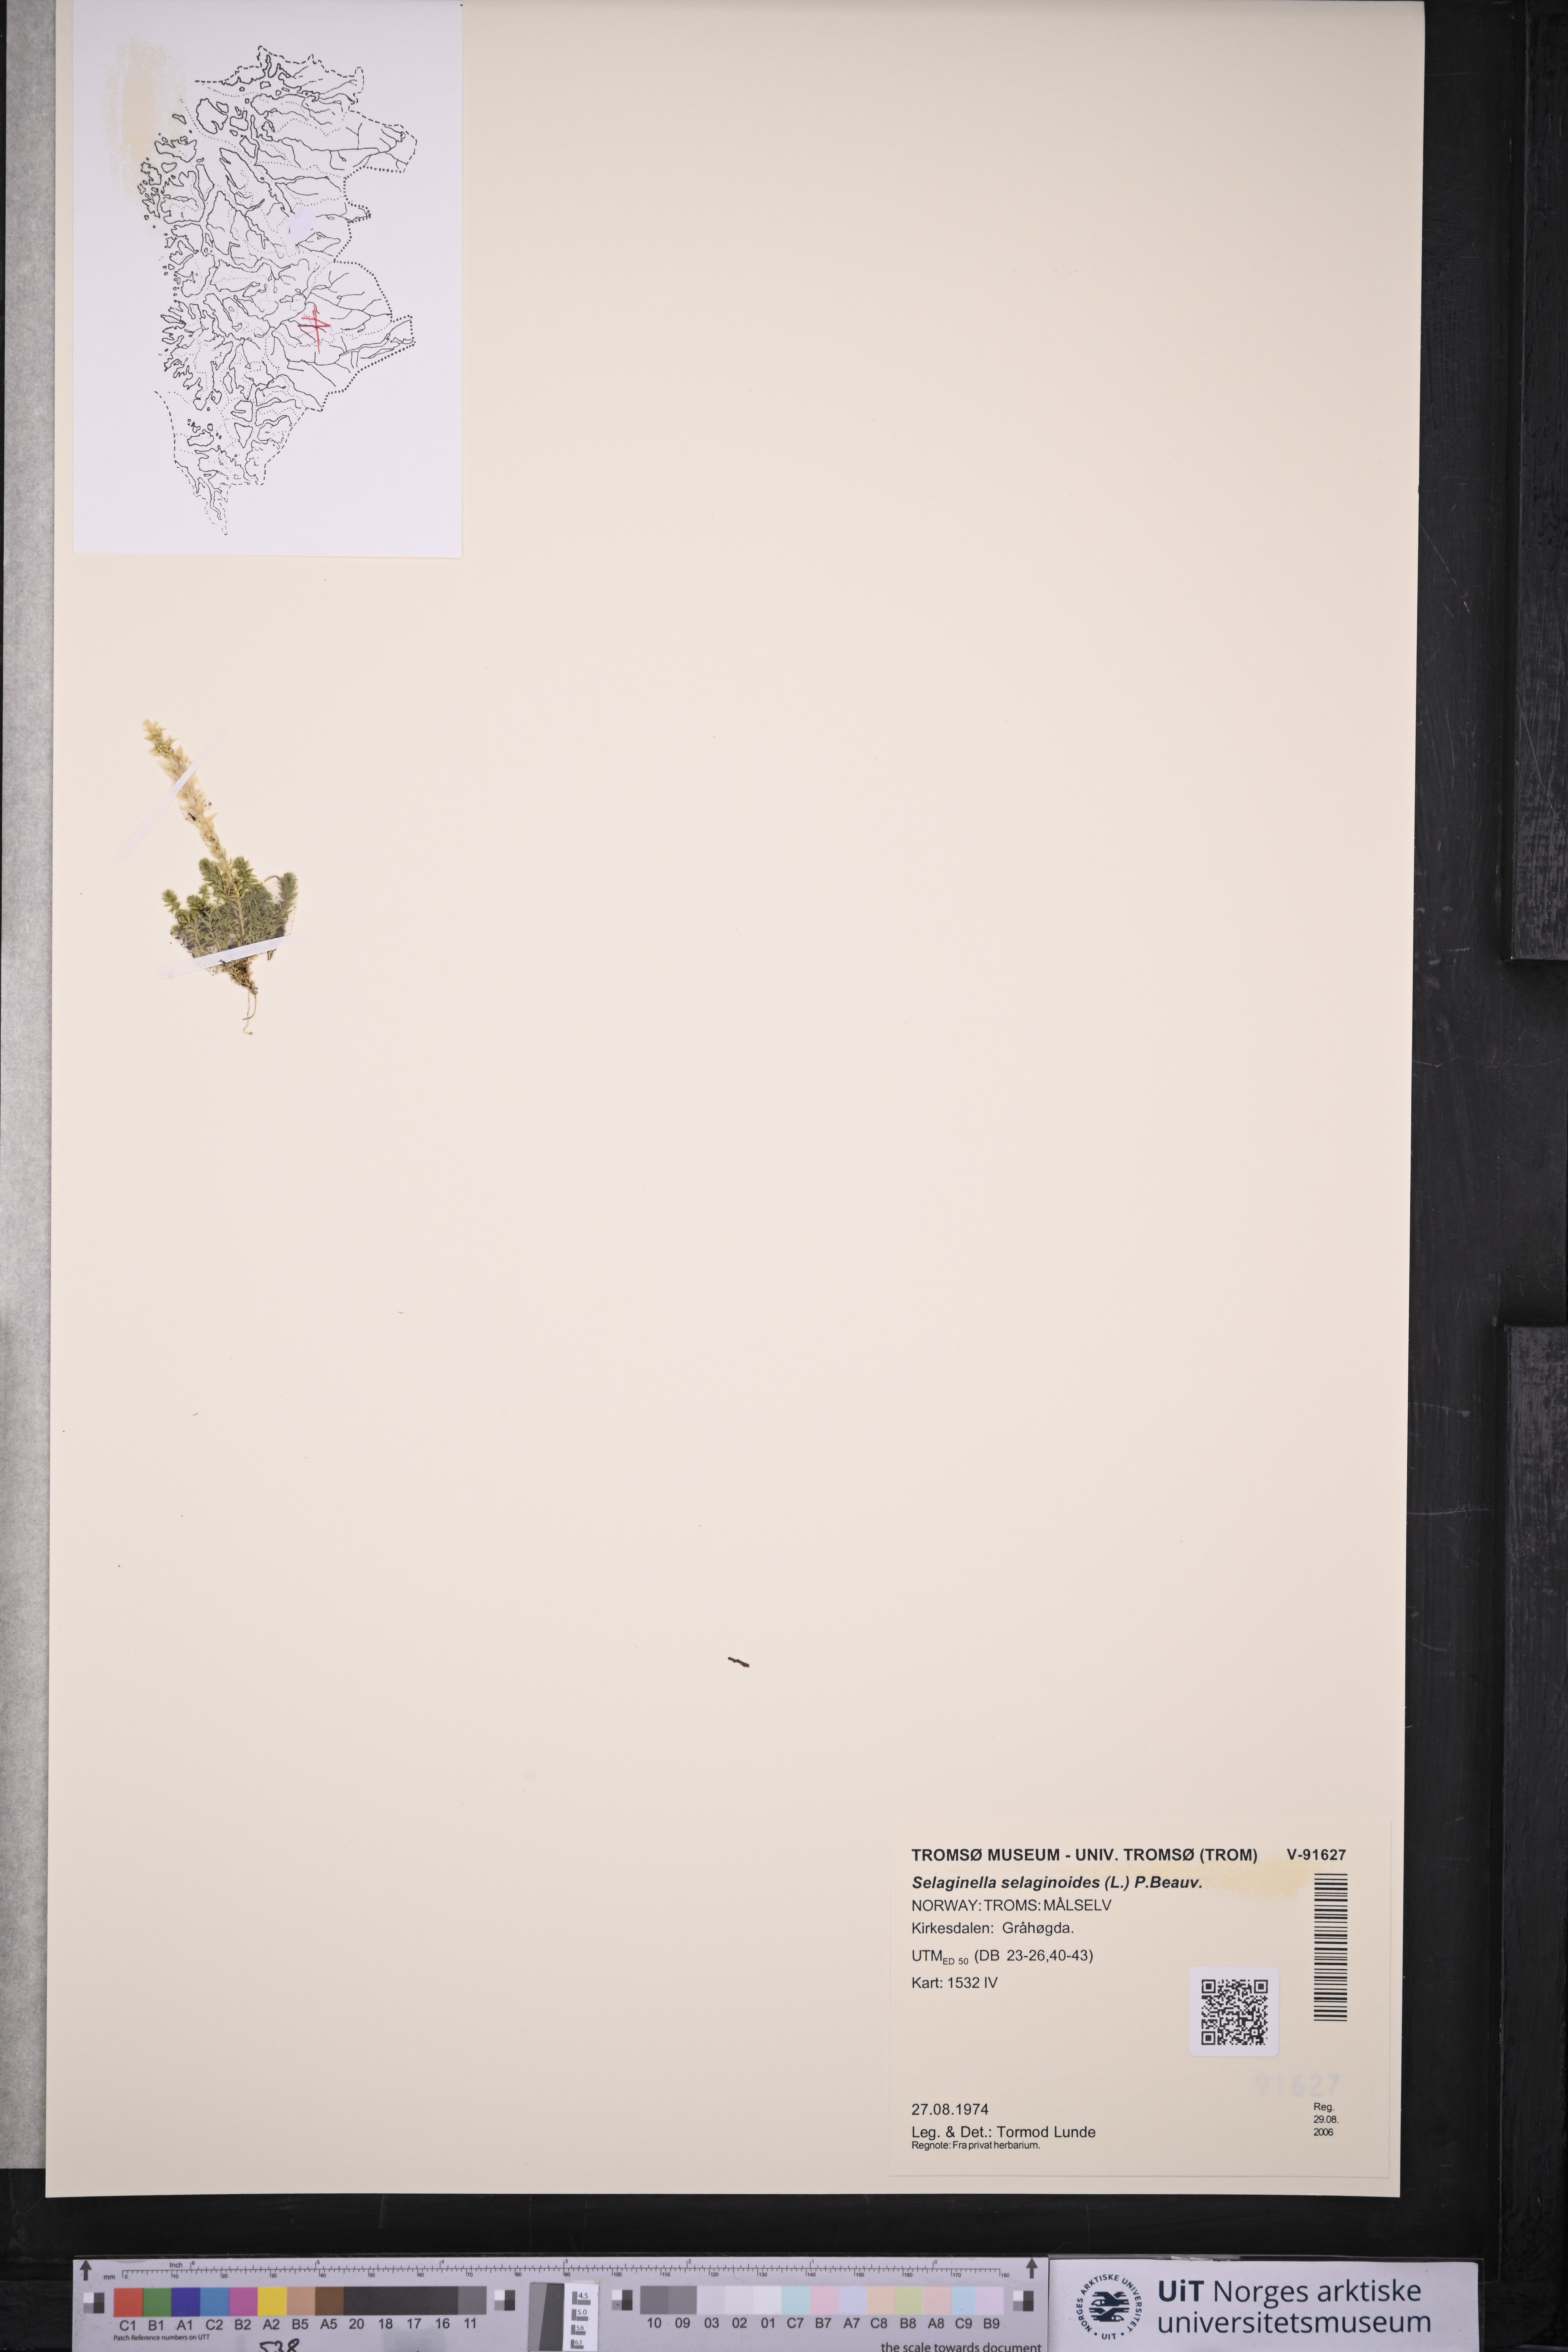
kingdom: Plantae
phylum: Tracheophyta
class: Lycopodiopsida
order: Selaginellales
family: Selaginellaceae
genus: Selaginella
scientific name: Selaginella selaginoides
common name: Prickly mountain-moss
